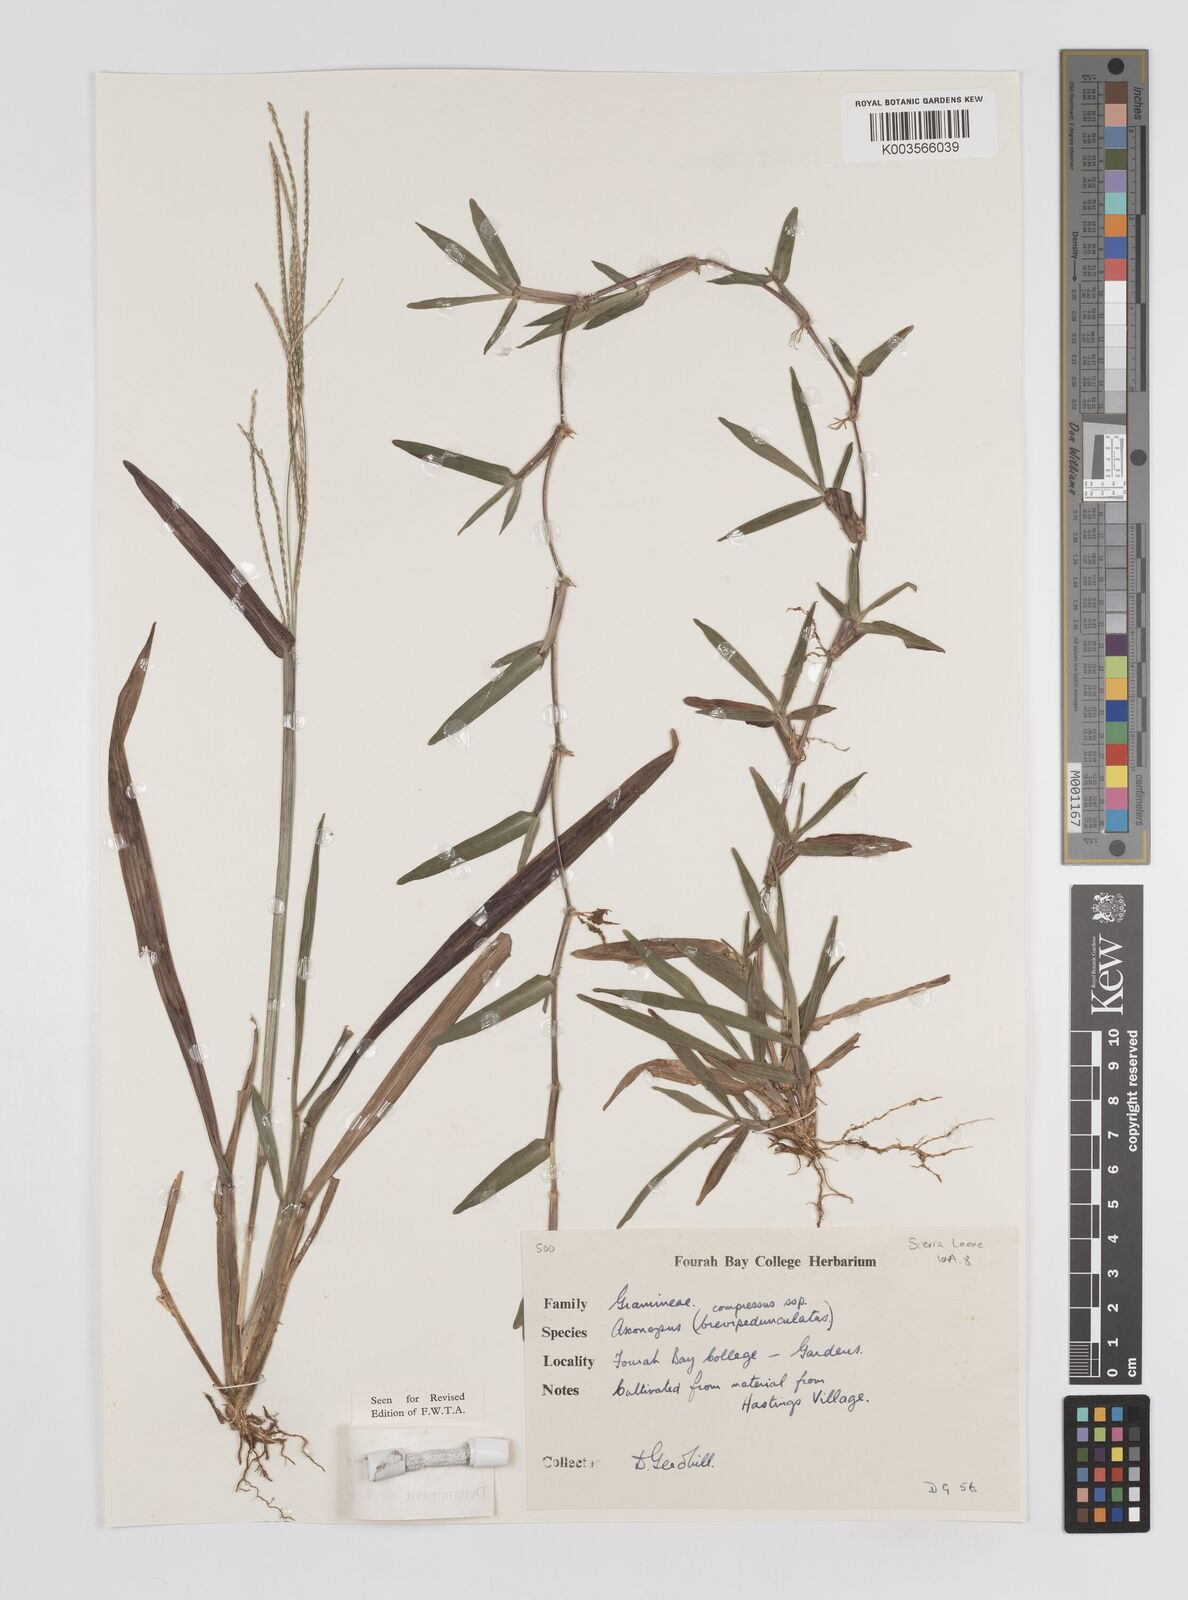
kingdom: Plantae
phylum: Tracheophyta
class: Liliopsida
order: Poales
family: Poaceae
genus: Axonopus
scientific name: Axonopus compressus
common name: American carpet grass
